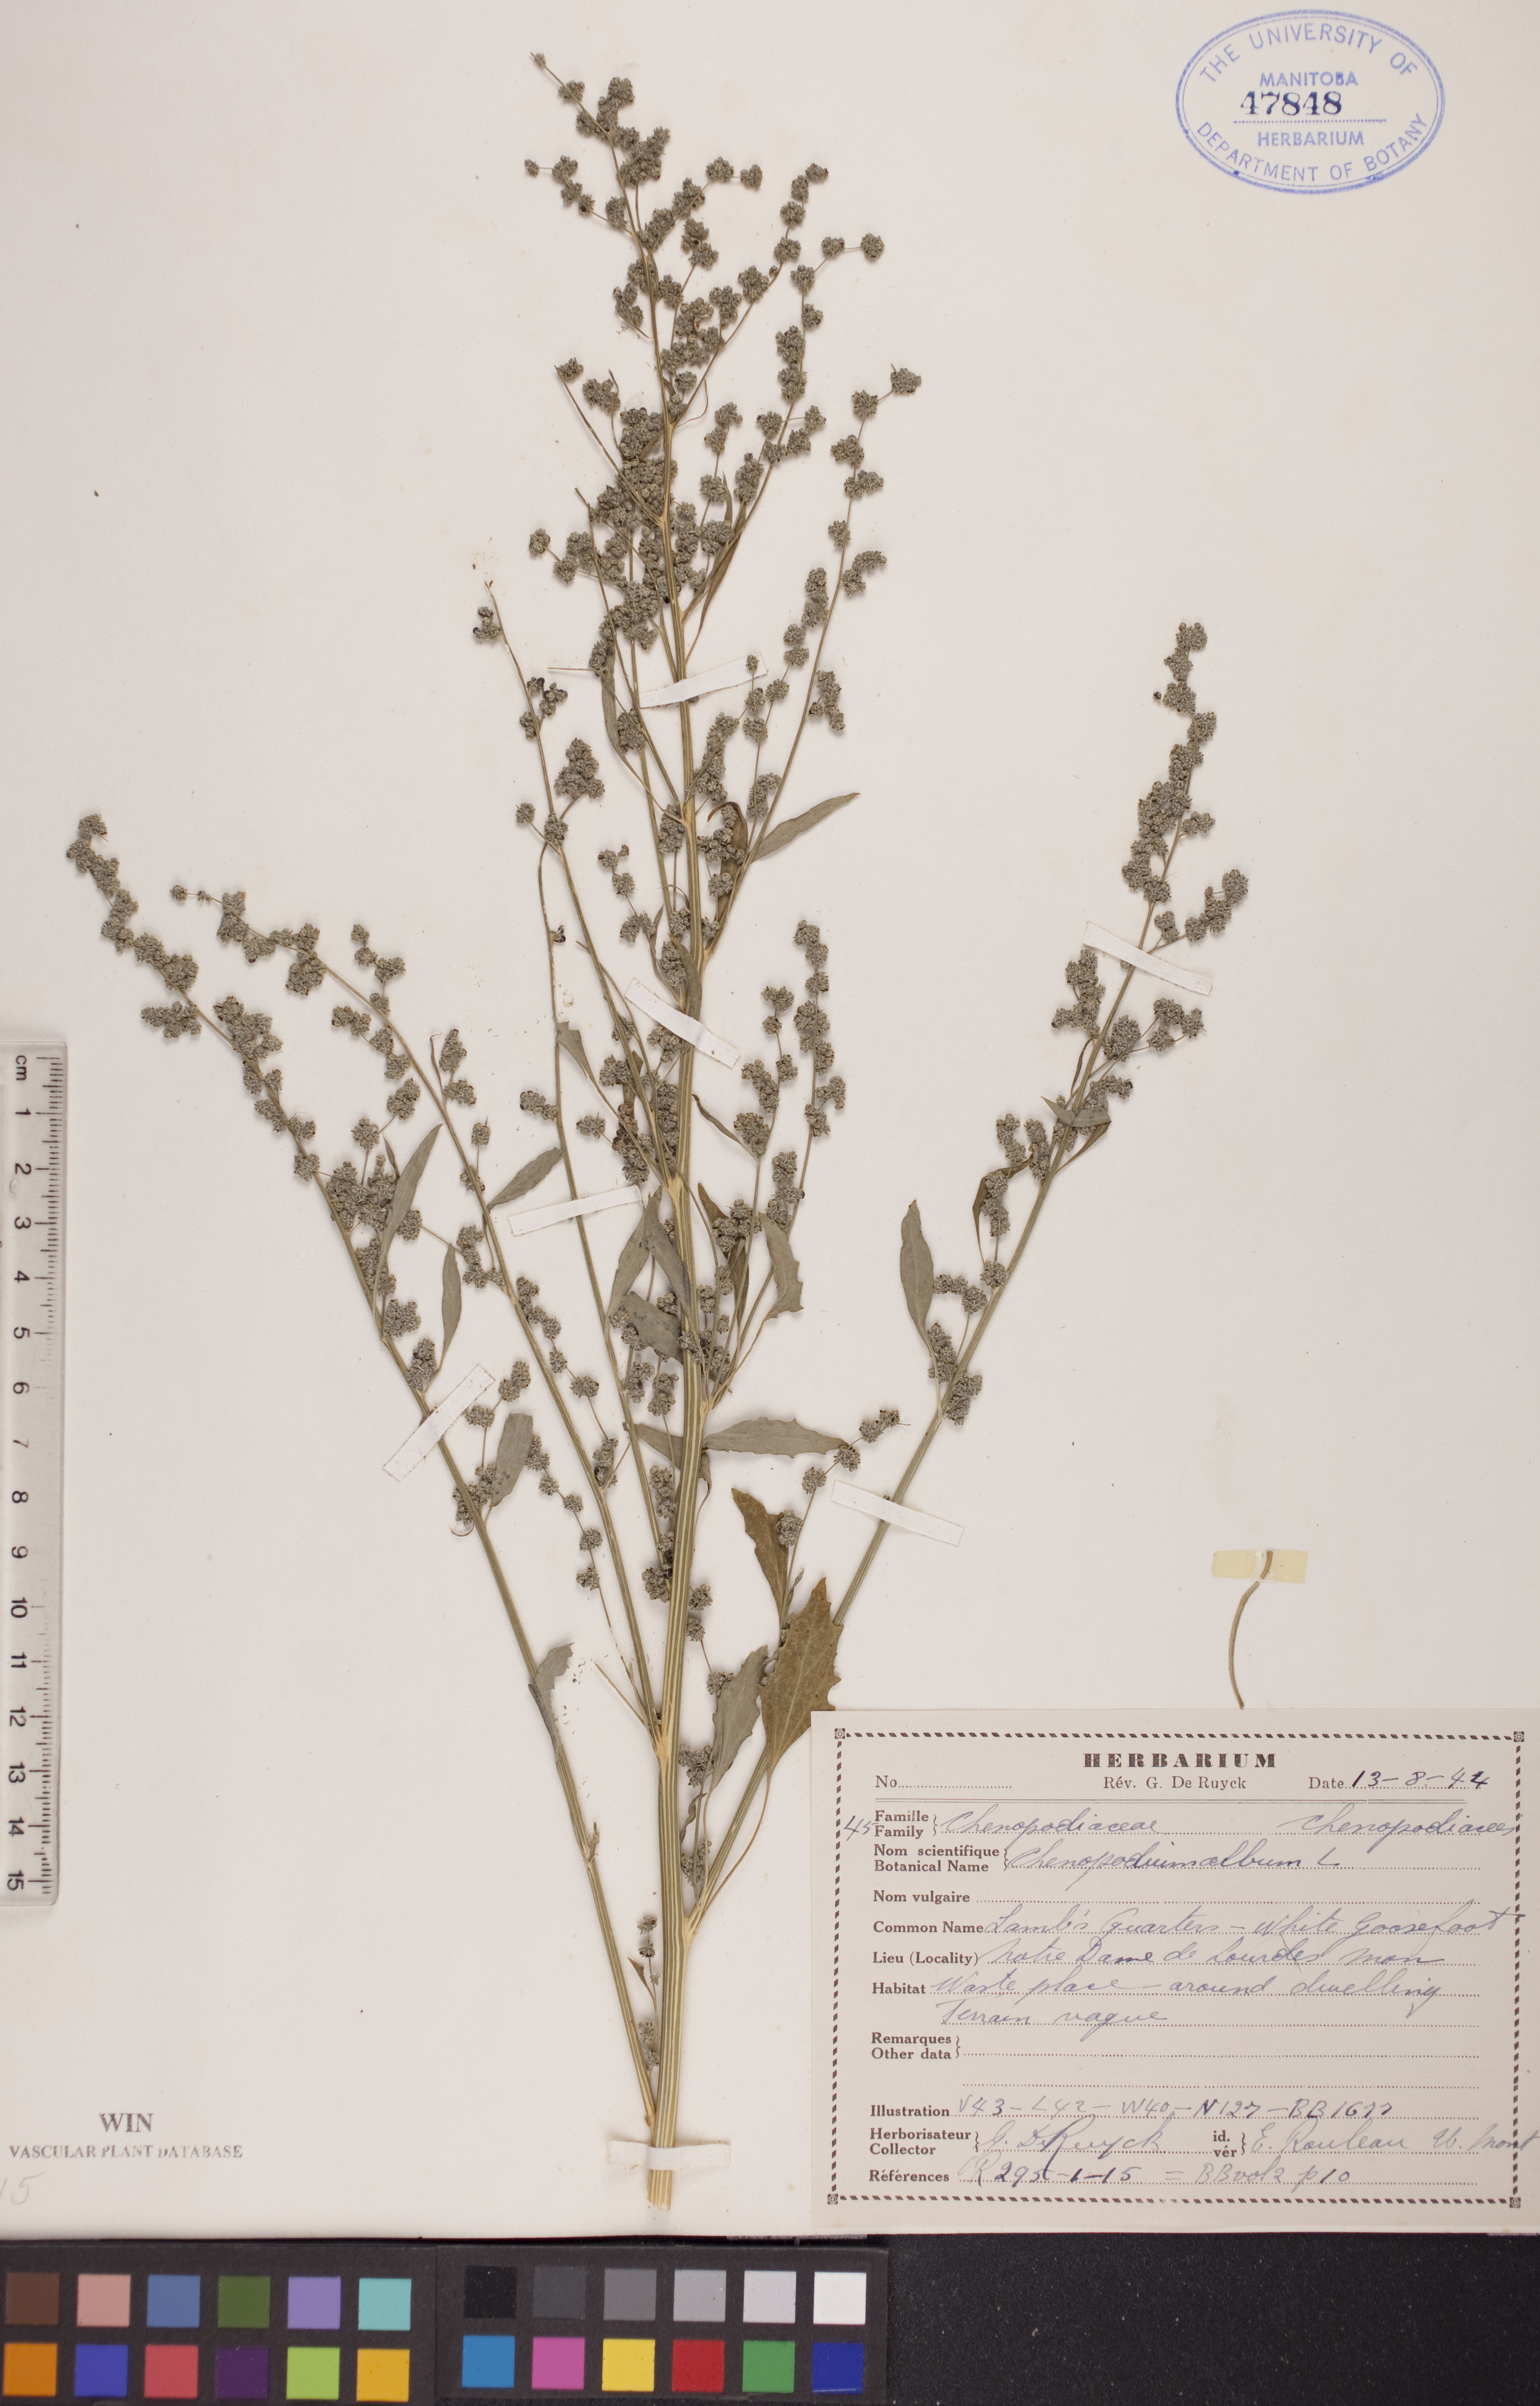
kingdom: Plantae
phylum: Tracheophyta
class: Magnoliopsida
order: Caryophyllales
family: Amaranthaceae
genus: Chenopodium
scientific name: Chenopodium album
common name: Fat-hen
